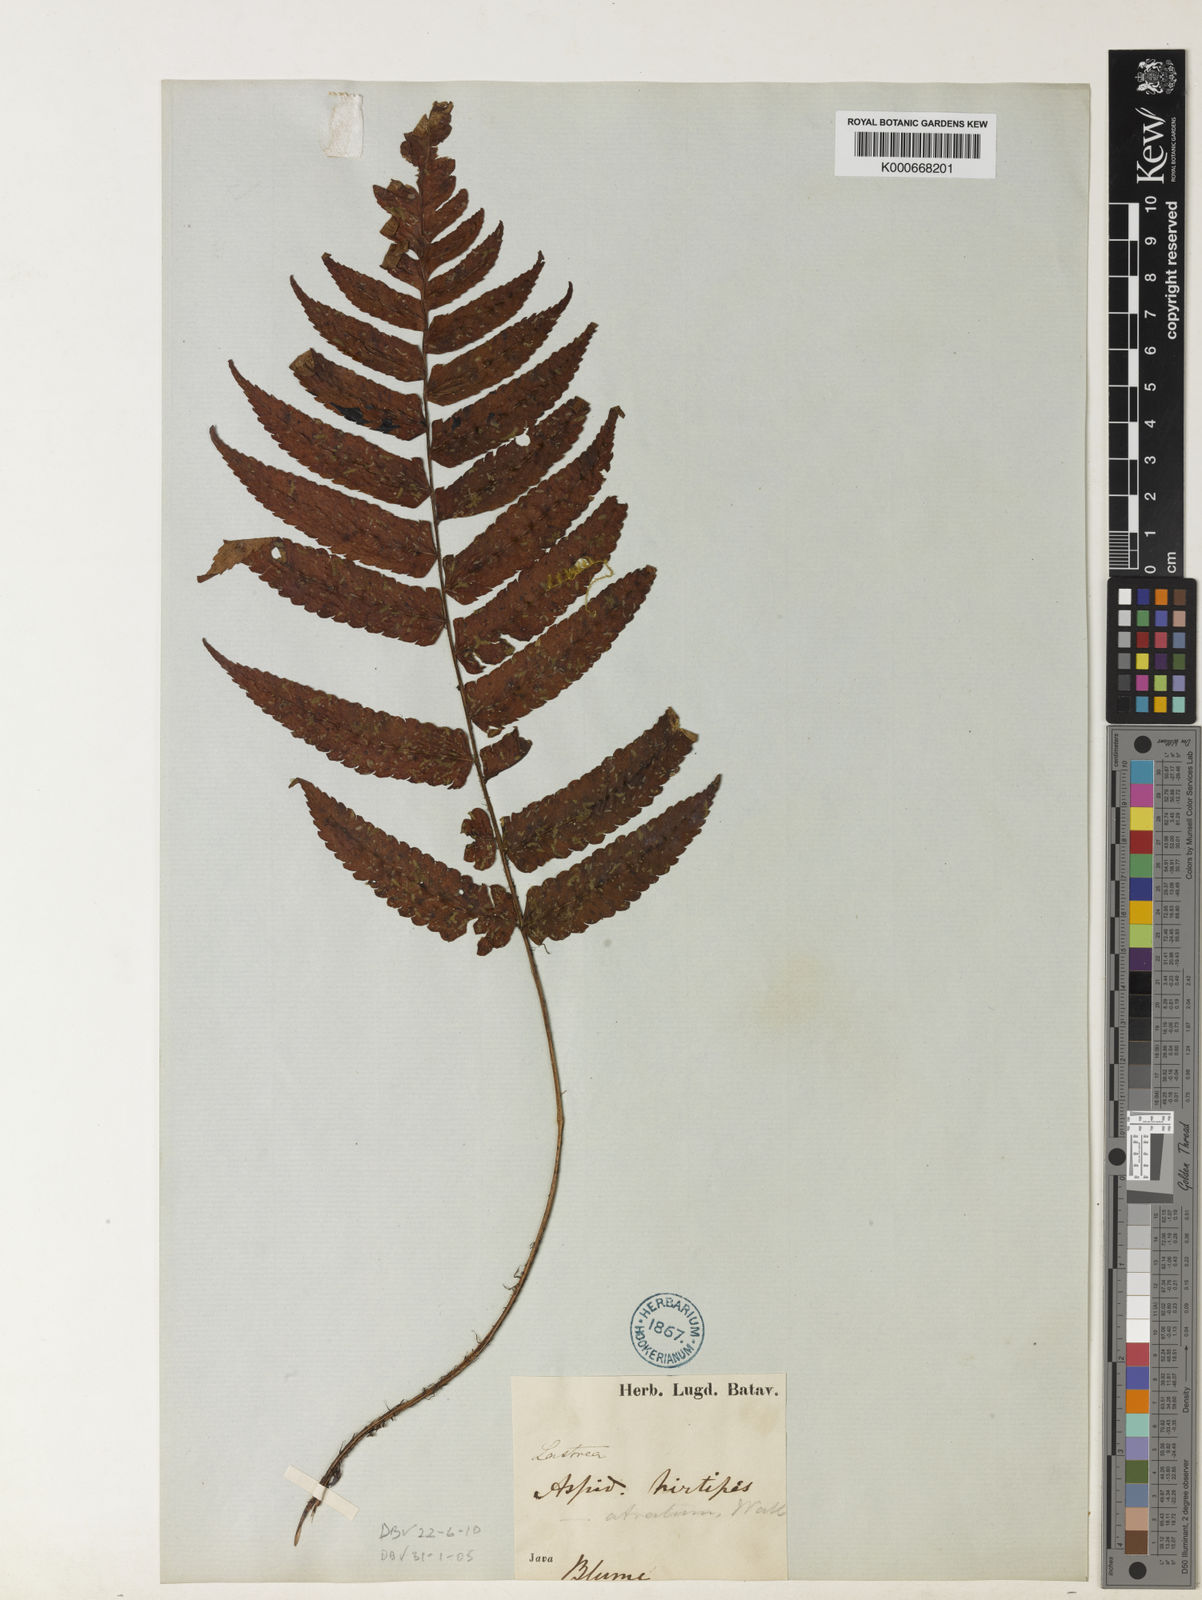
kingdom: Plantae
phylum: Tracheophyta
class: Polypodiopsida
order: Polypodiales
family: Dryopteridaceae
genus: Dryopteris
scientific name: Dryopteris hirtipes
